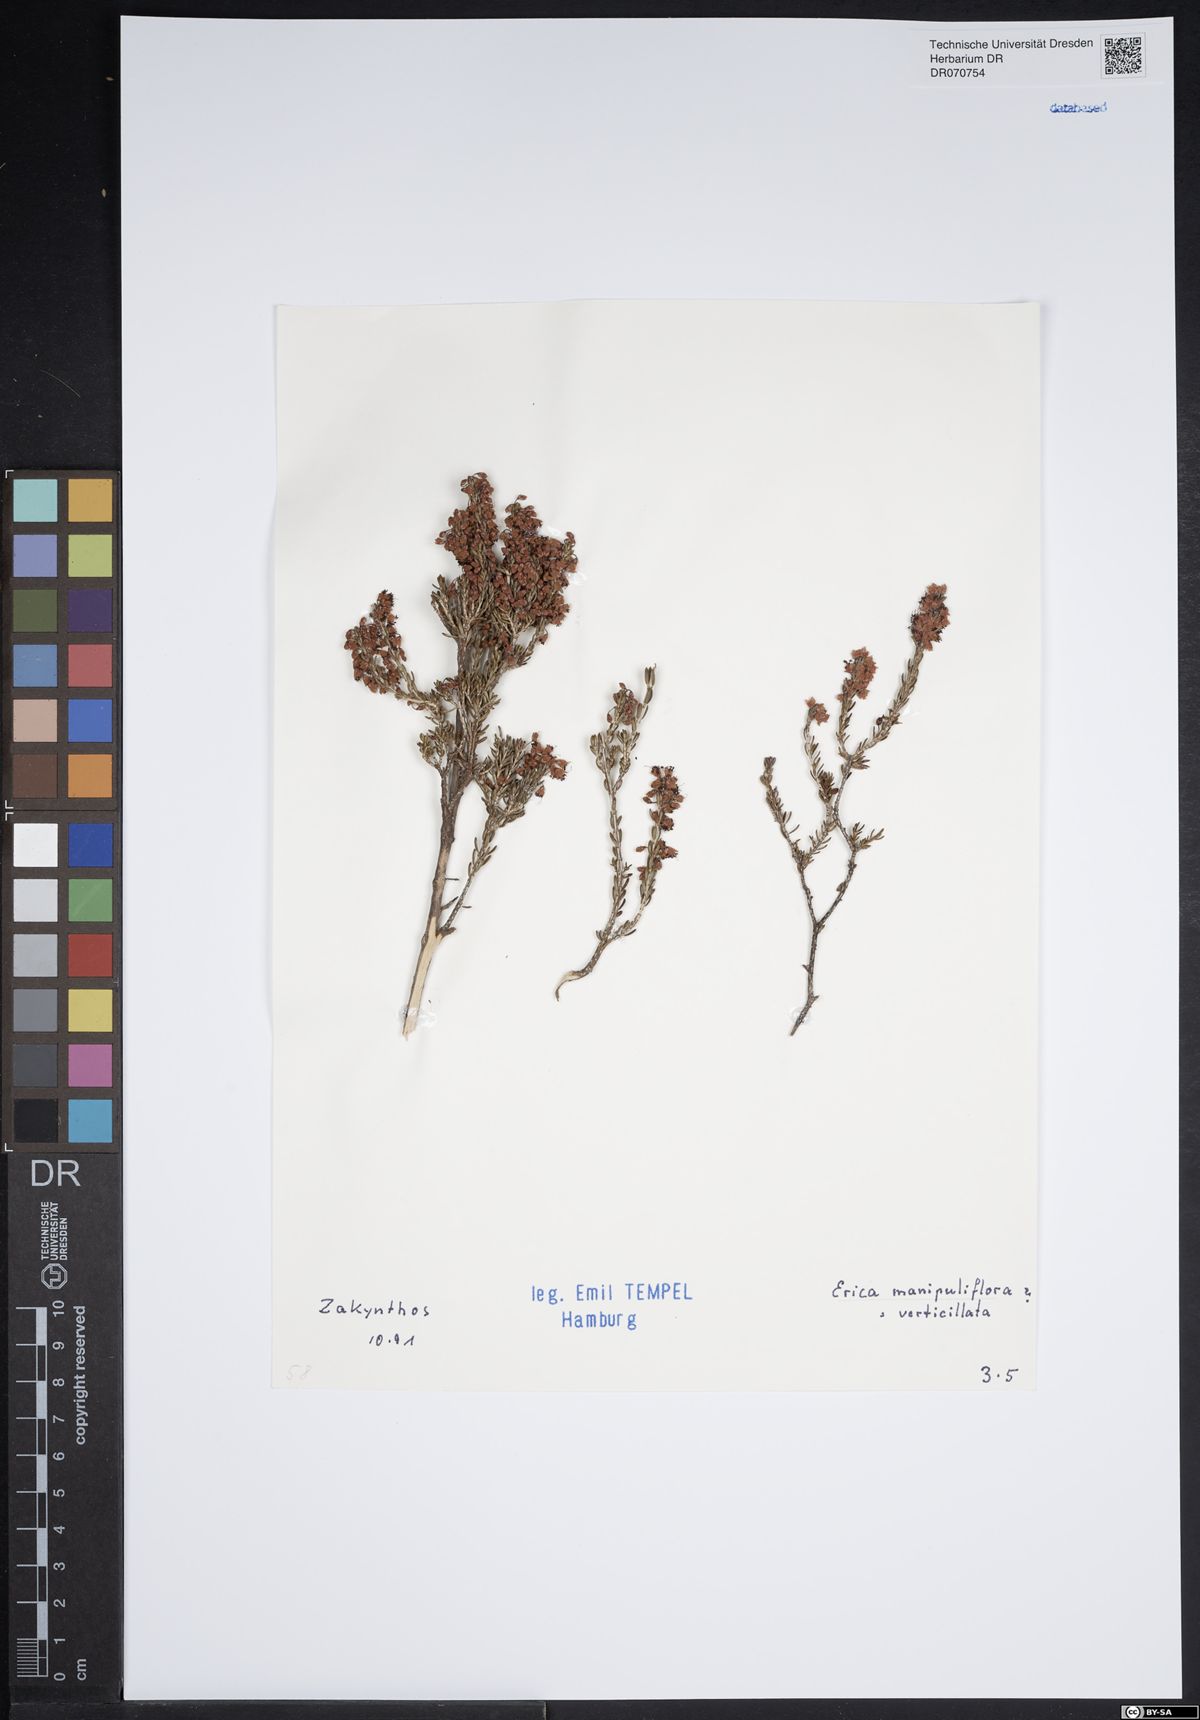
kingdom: Plantae
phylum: Tracheophyta
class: Magnoliopsida
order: Ericales
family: Ericaceae
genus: Erica
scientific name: Erica manipuliflora
